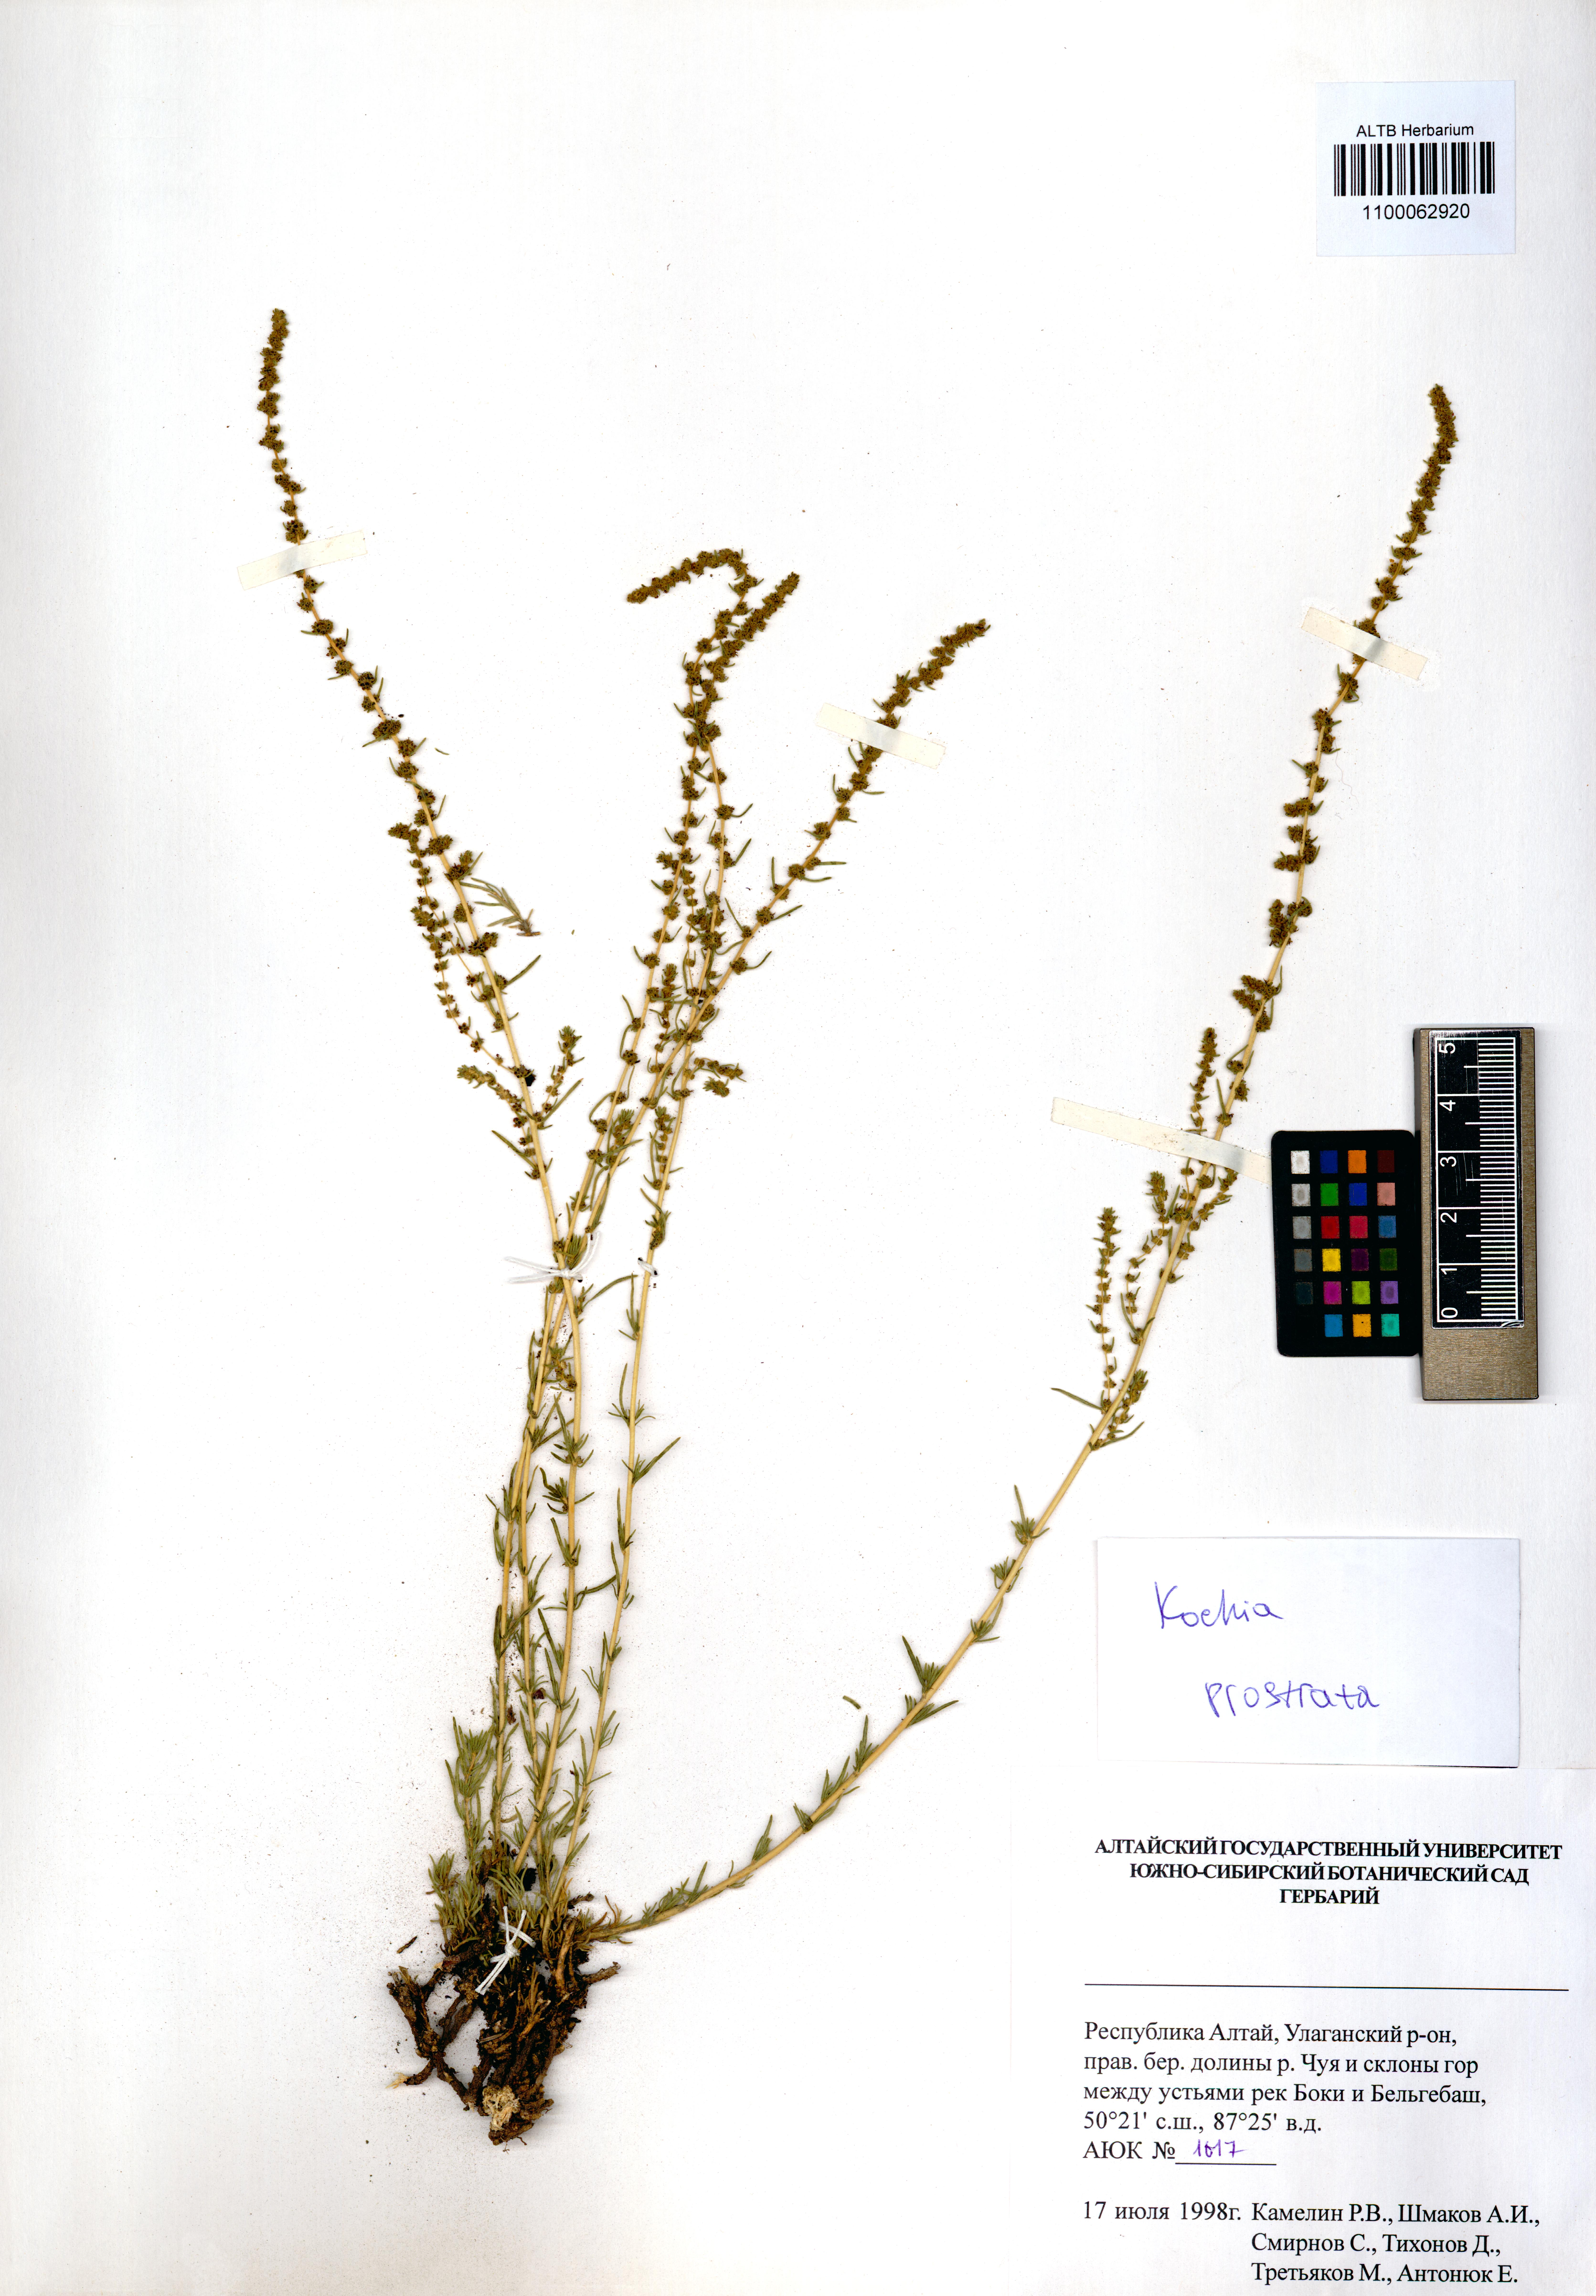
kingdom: Plantae
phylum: Tracheophyta
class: Magnoliopsida
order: Caryophyllales
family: Amaranthaceae
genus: Bassia
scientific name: Bassia prostrata
